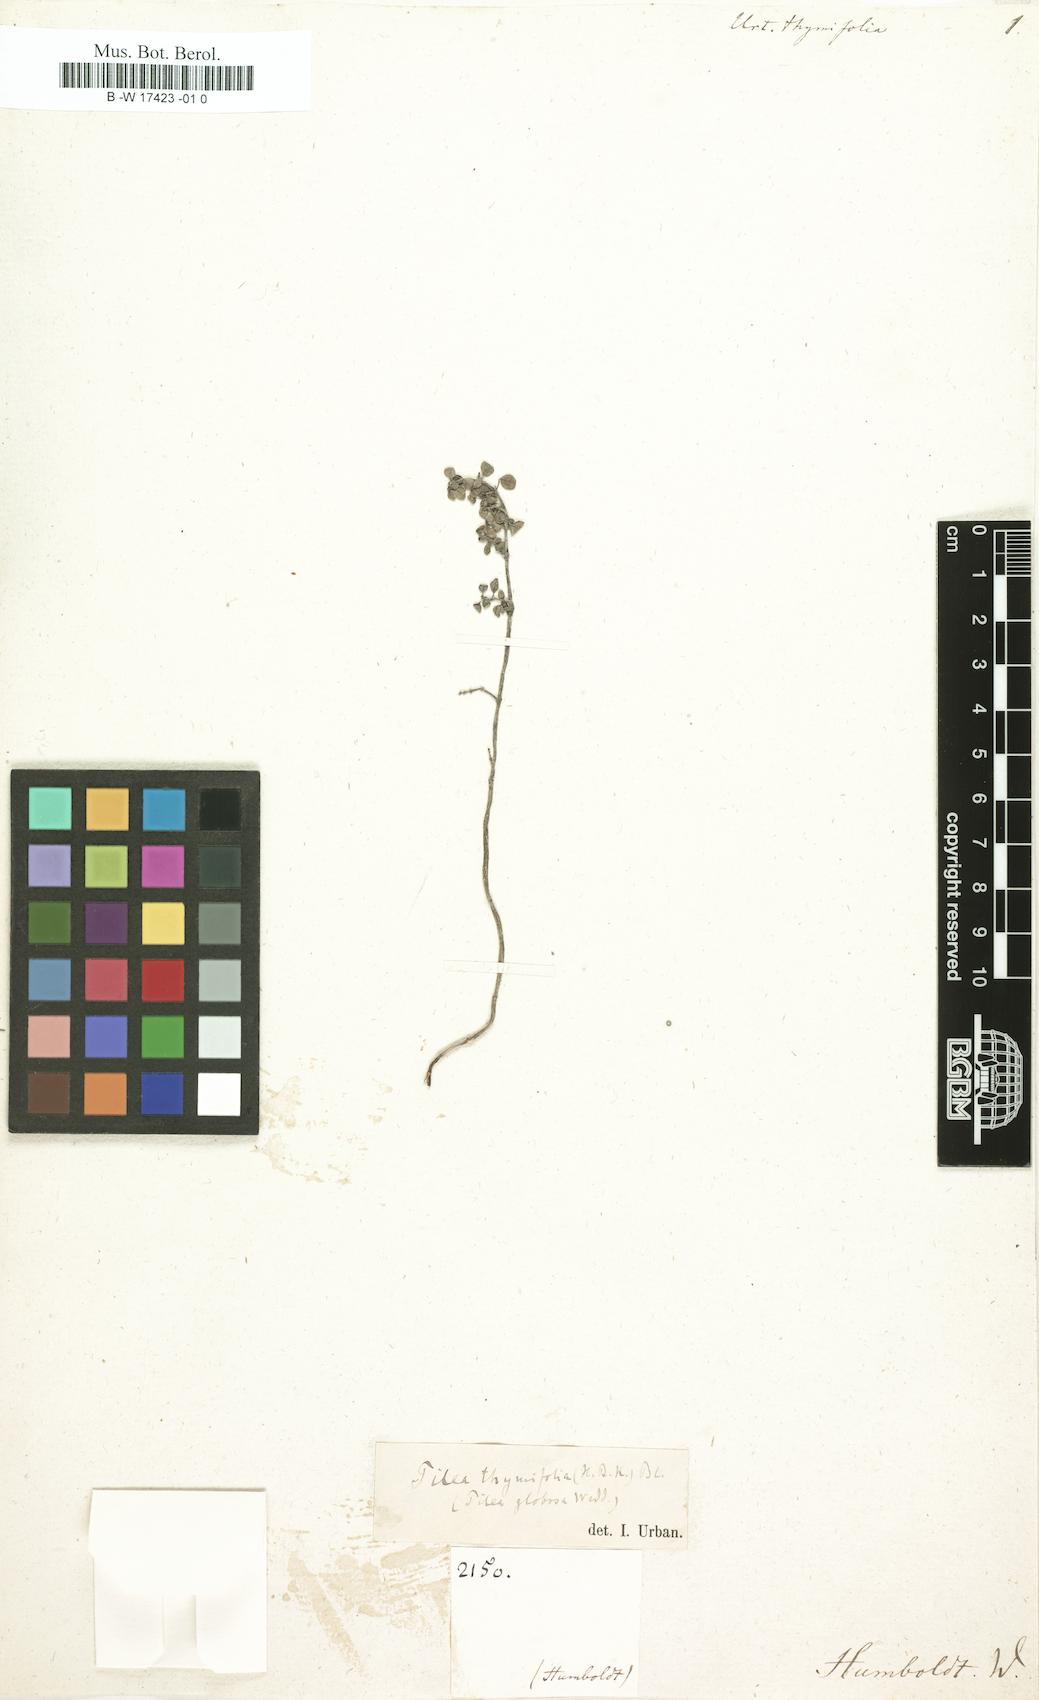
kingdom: Plantae
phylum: Tracheophyta
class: Magnoliopsida
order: Rosales
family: Urticaceae
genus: Pilea
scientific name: Pilea serpyllacea
